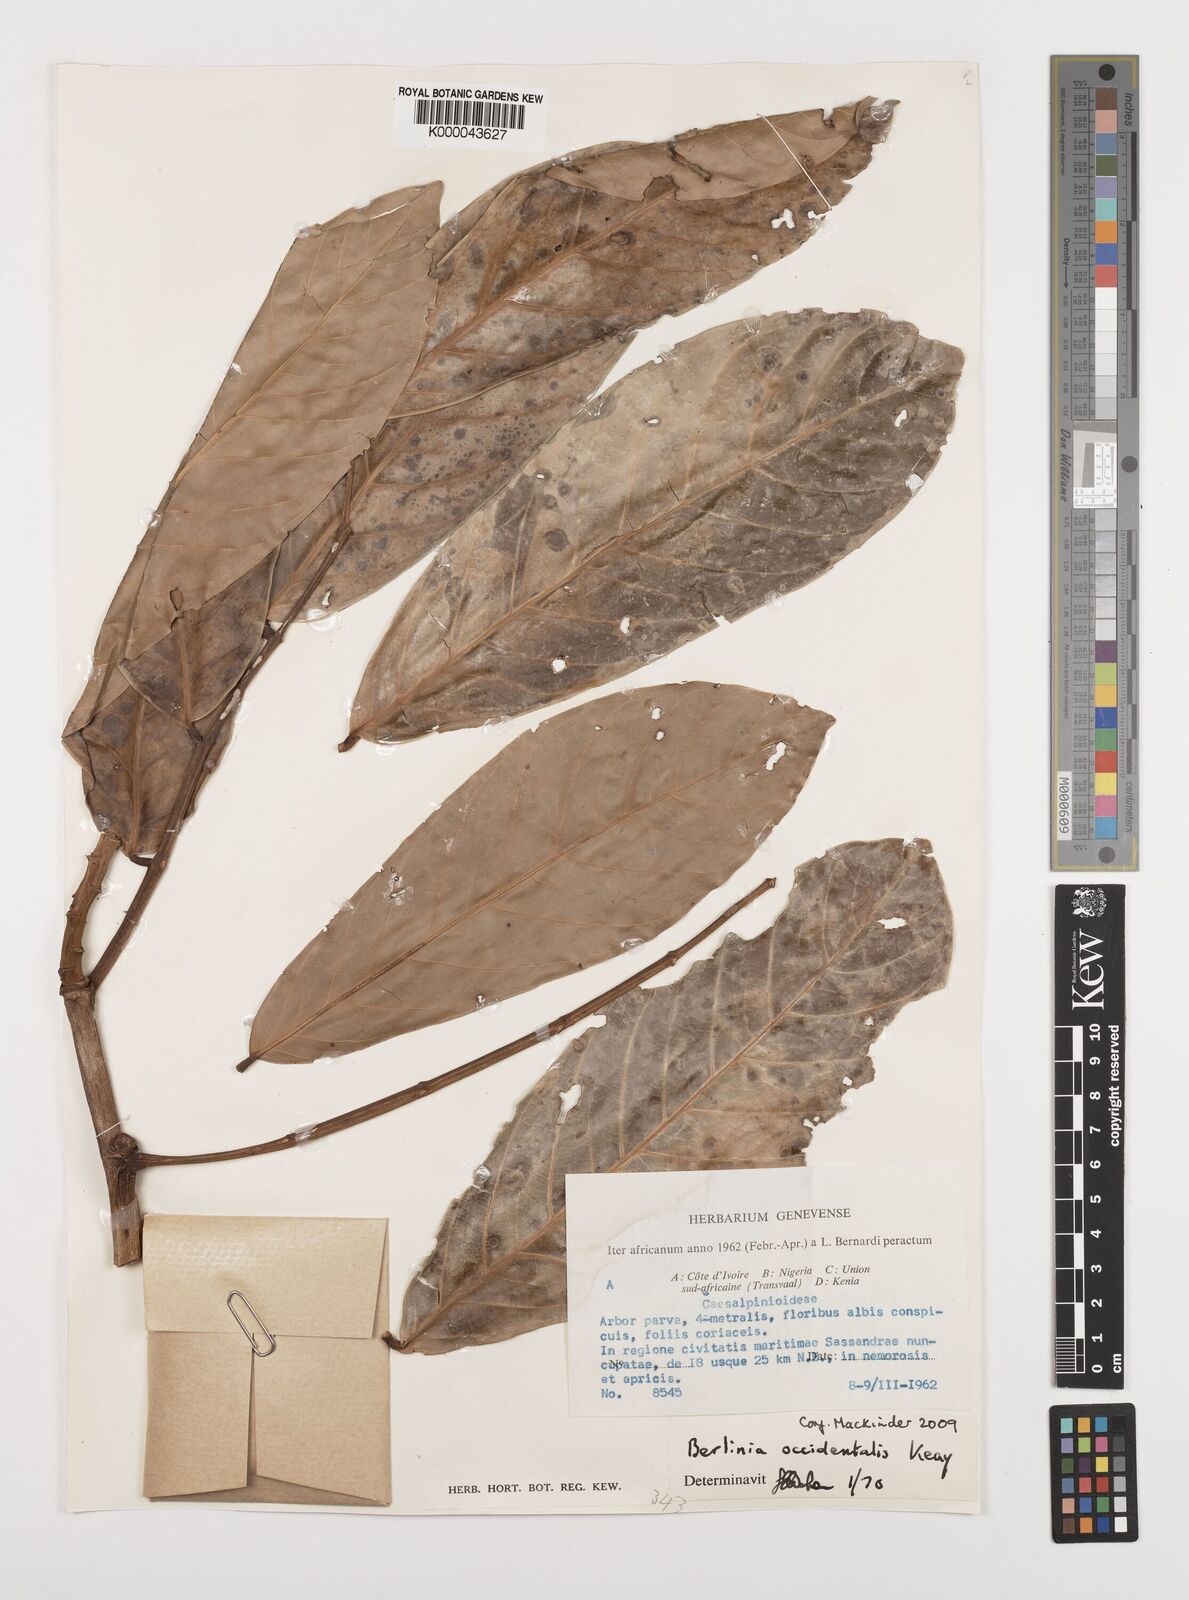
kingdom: Plantae
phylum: Tracheophyta
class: Magnoliopsida
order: Fabales
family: Fabaceae
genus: Berlinia
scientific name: Berlinia occidentalis
